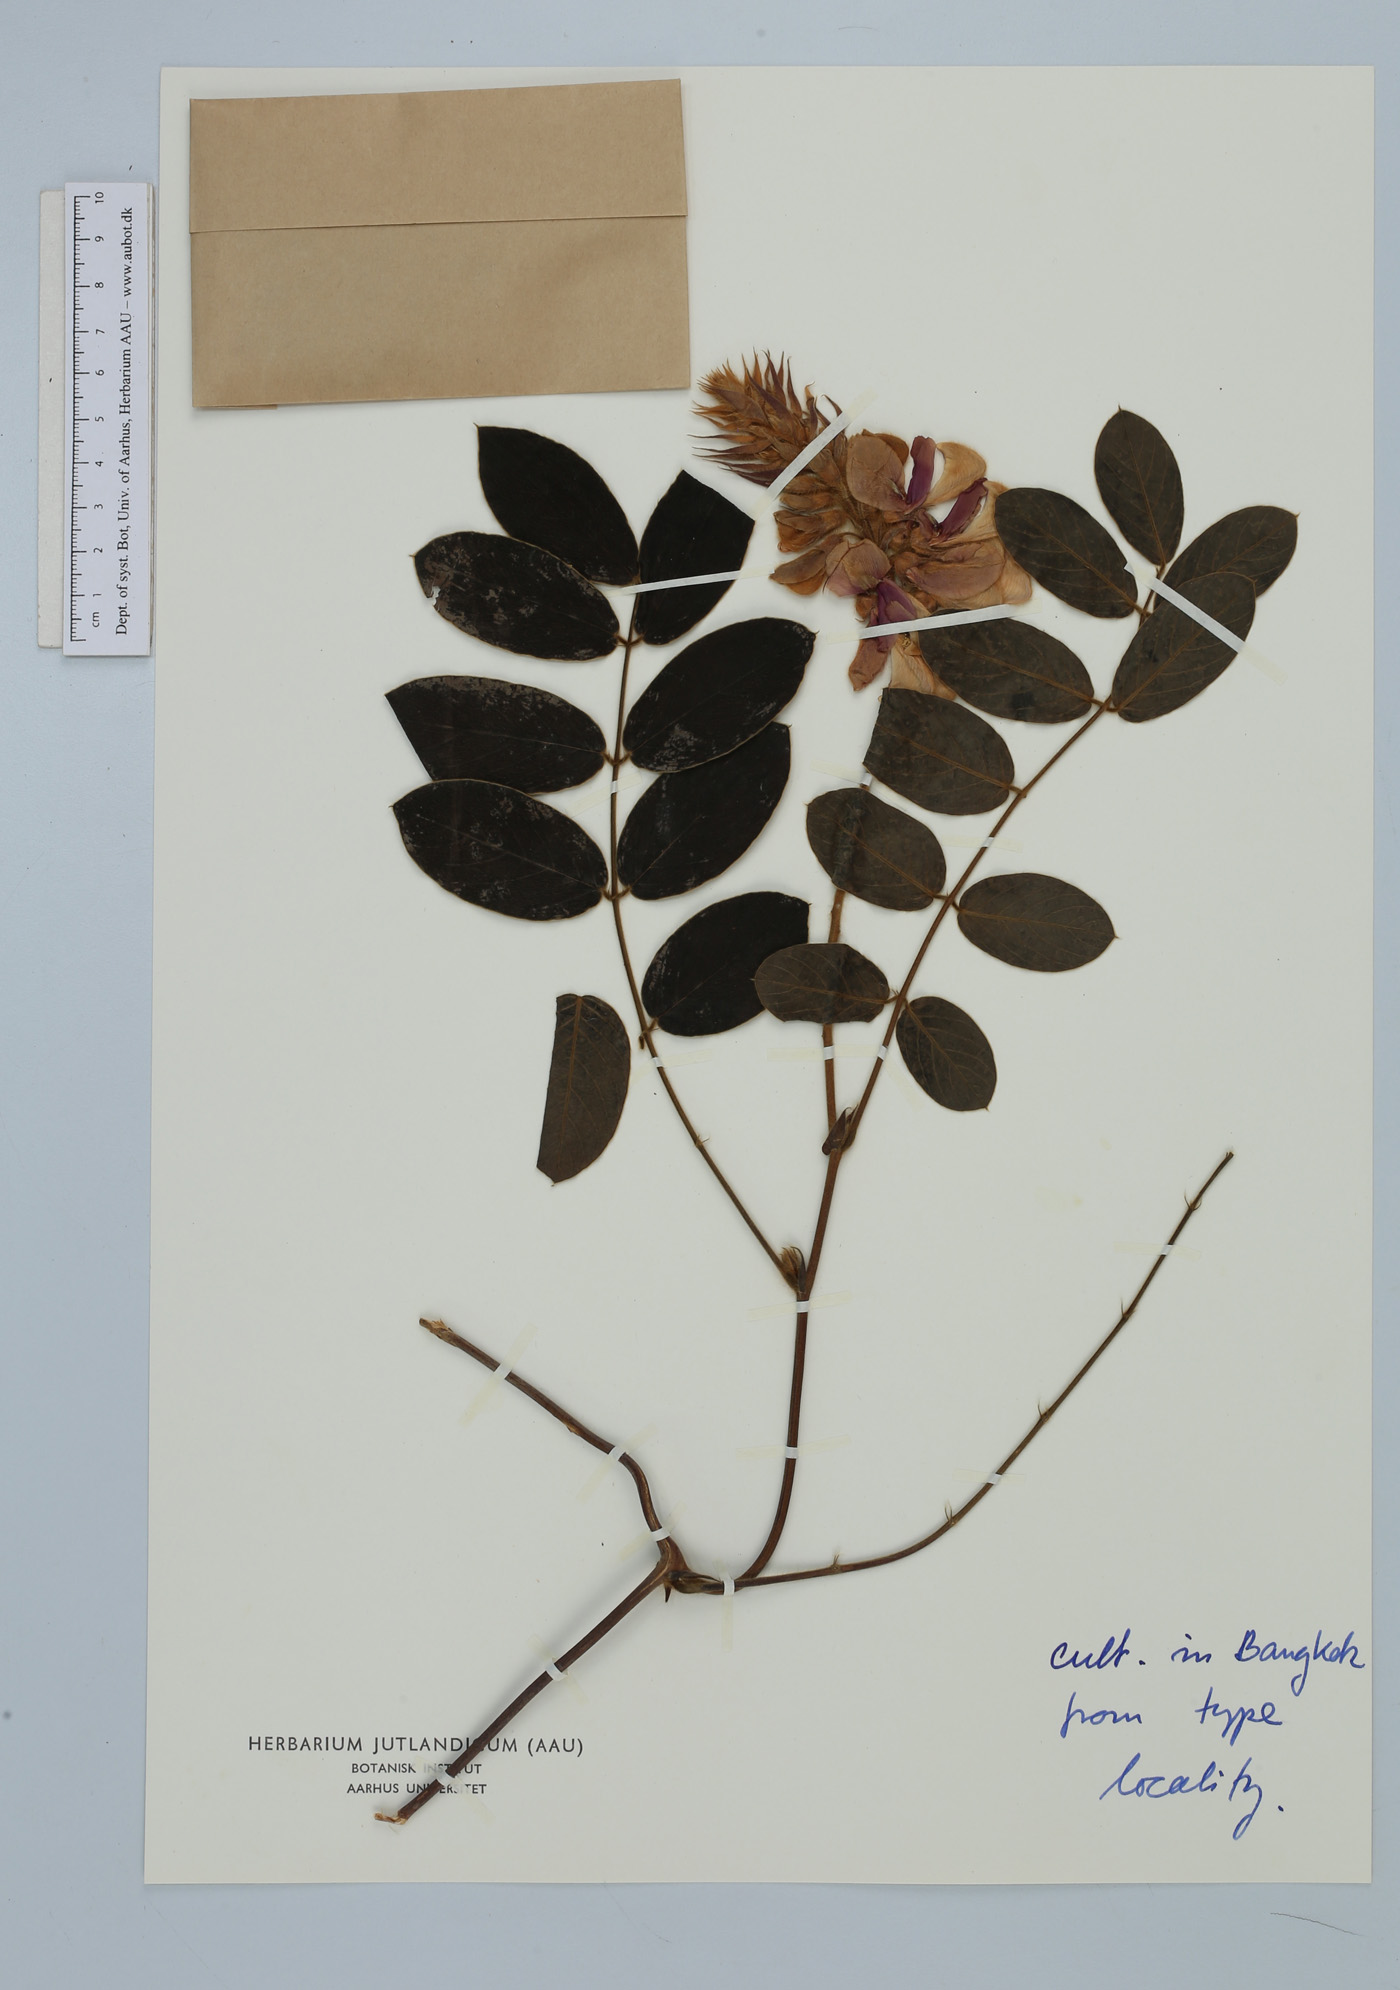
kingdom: Plantae
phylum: Tracheophyta
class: Magnoliopsida
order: Fabales
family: Fabaceae
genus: Afgekia
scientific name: Afgekia mahidolae
